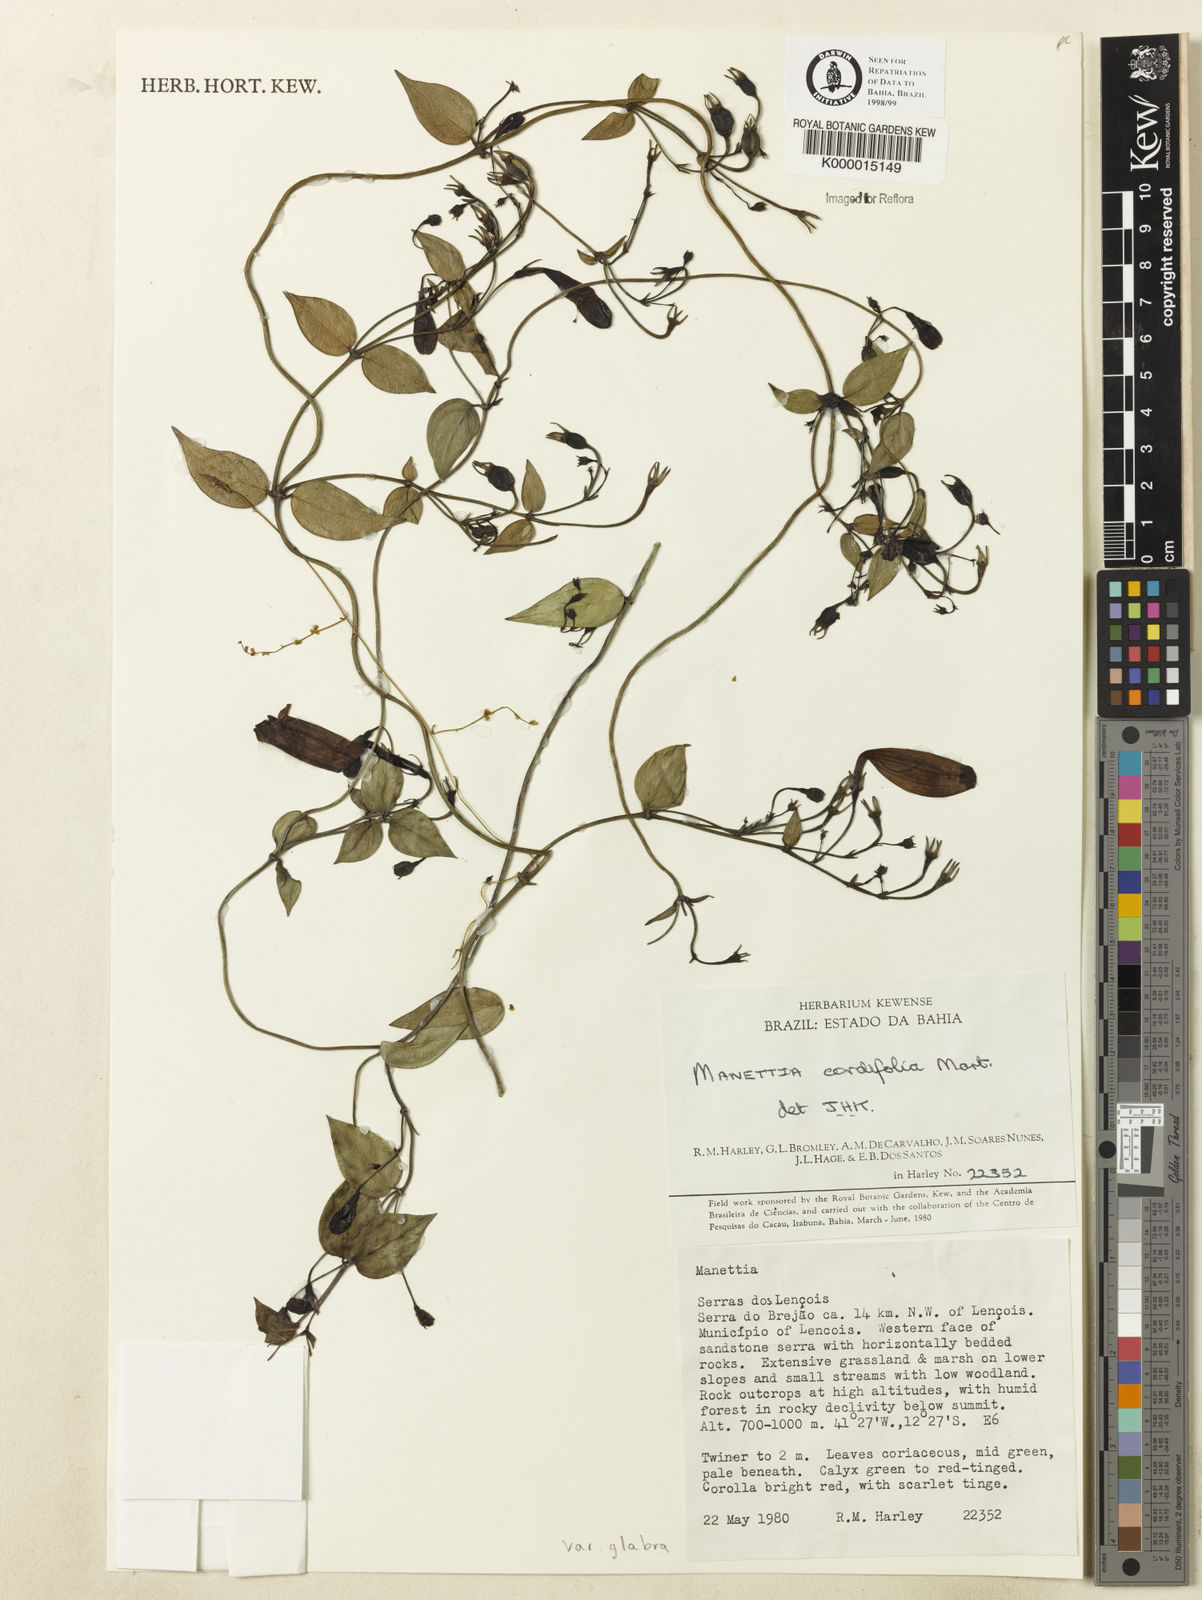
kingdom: Plantae
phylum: Tracheophyta
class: Magnoliopsida
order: Gentianales
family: Rubiaceae
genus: Manettia
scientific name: Manettia cordifolia
